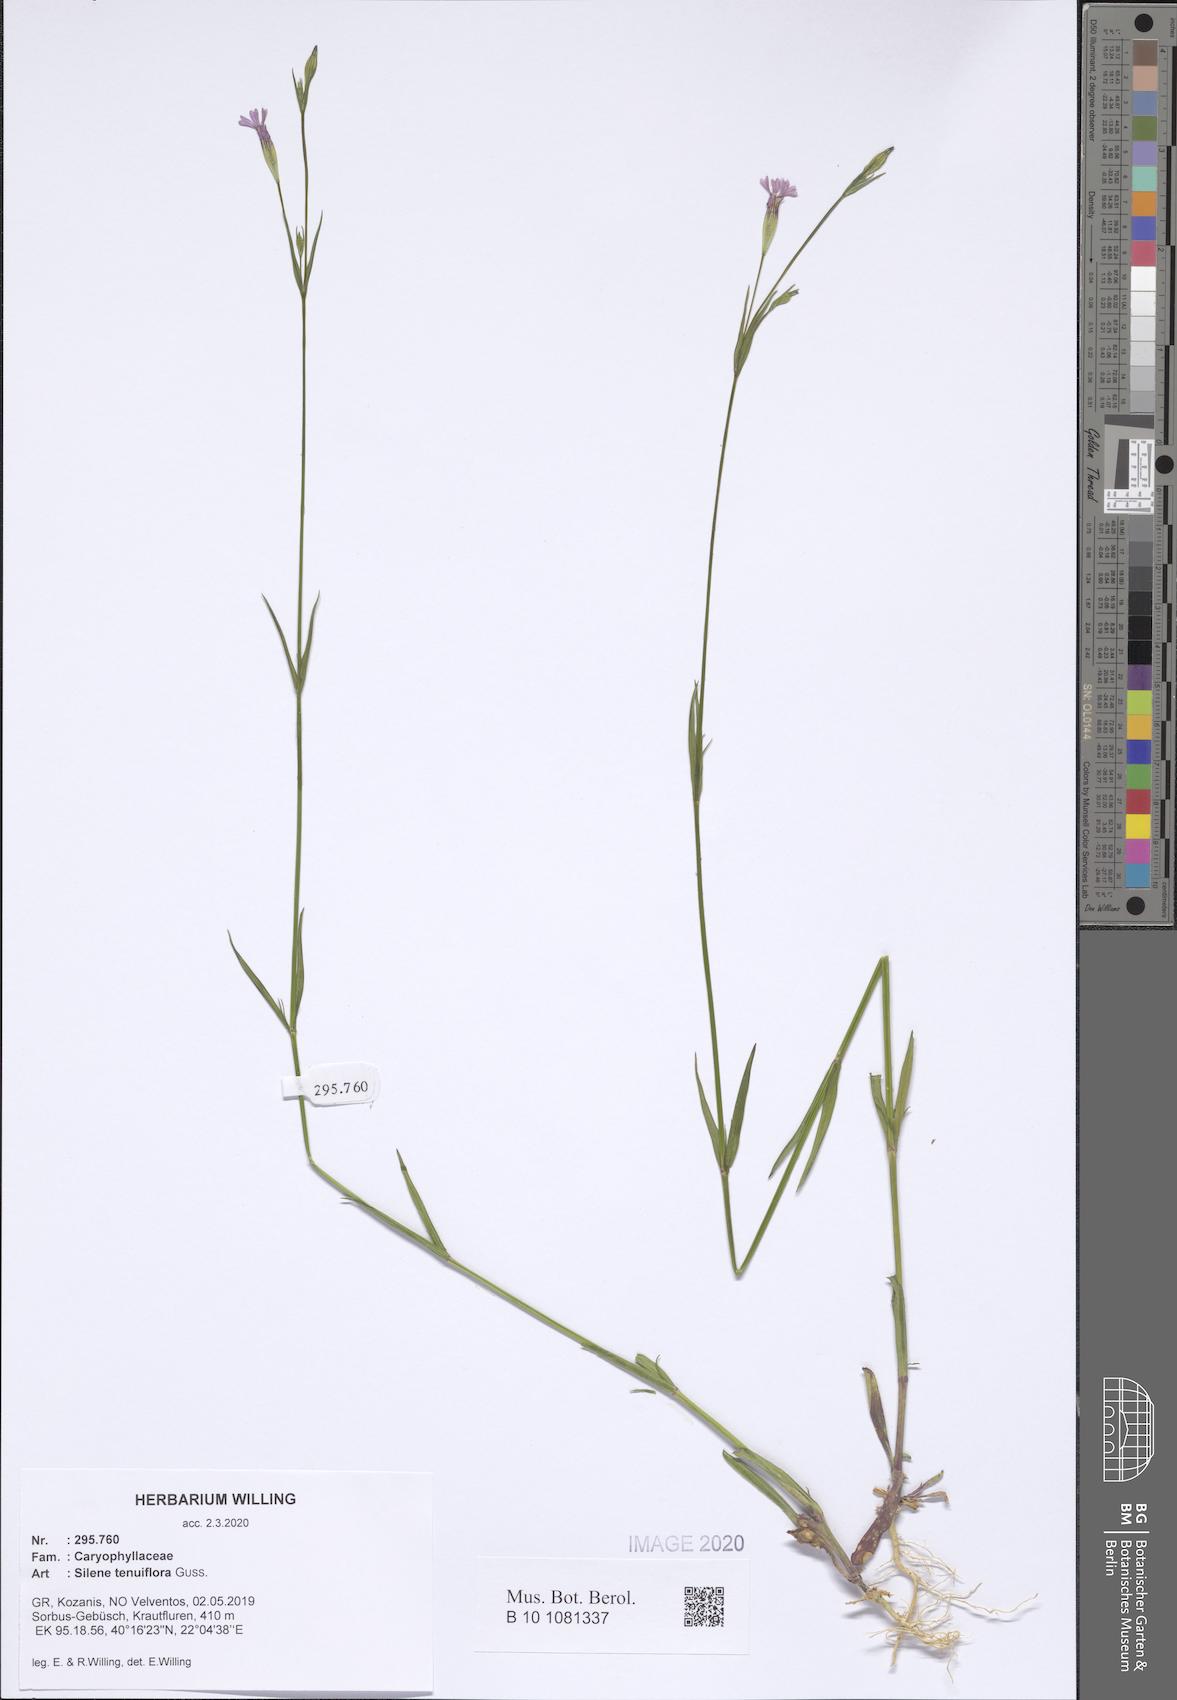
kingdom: Plantae
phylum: Tracheophyta
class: Magnoliopsida
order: Caryophyllales
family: Caryophyllaceae
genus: Silene
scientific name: Silene tenuiflora
